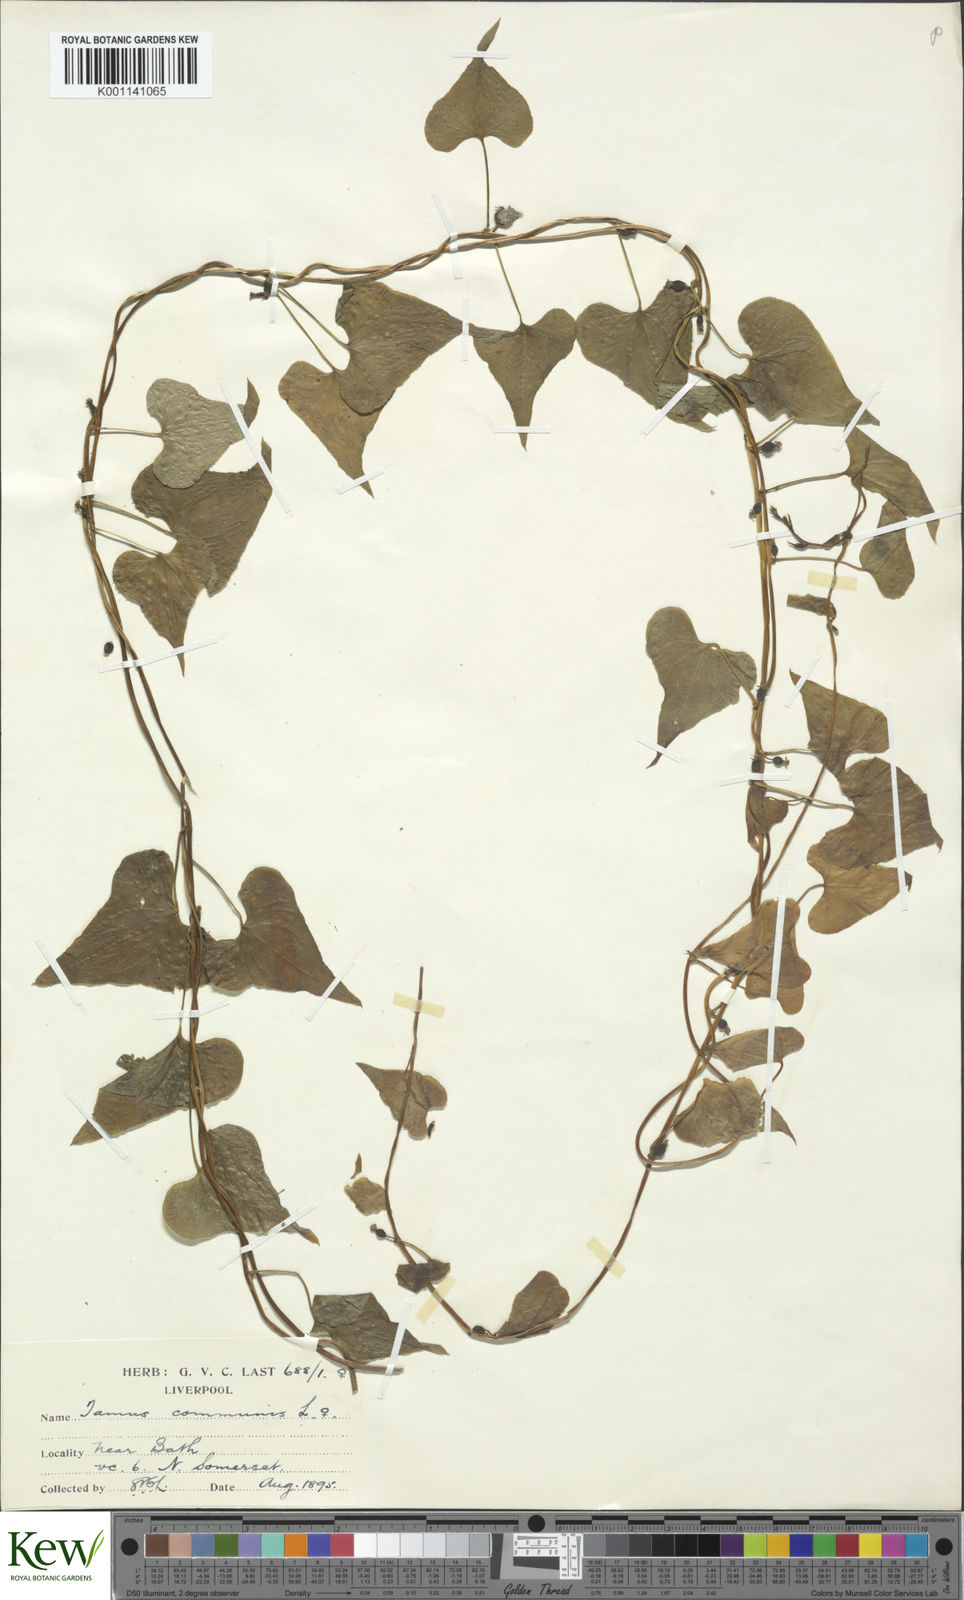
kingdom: Plantae
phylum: Tracheophyta
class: Liliopsida
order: Dioscoreales
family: Dioscoreaceae
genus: Dioscorea
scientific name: Dioscorea communis
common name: Black-bindweed
